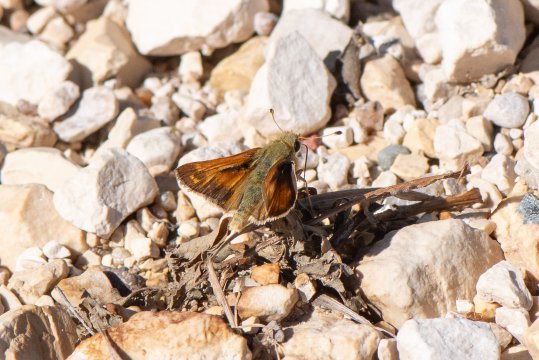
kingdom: Animalia
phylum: Arthropoda
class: Insecta
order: Lepidoptera
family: Hesperiidae
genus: Hesperia
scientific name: Hesperia
